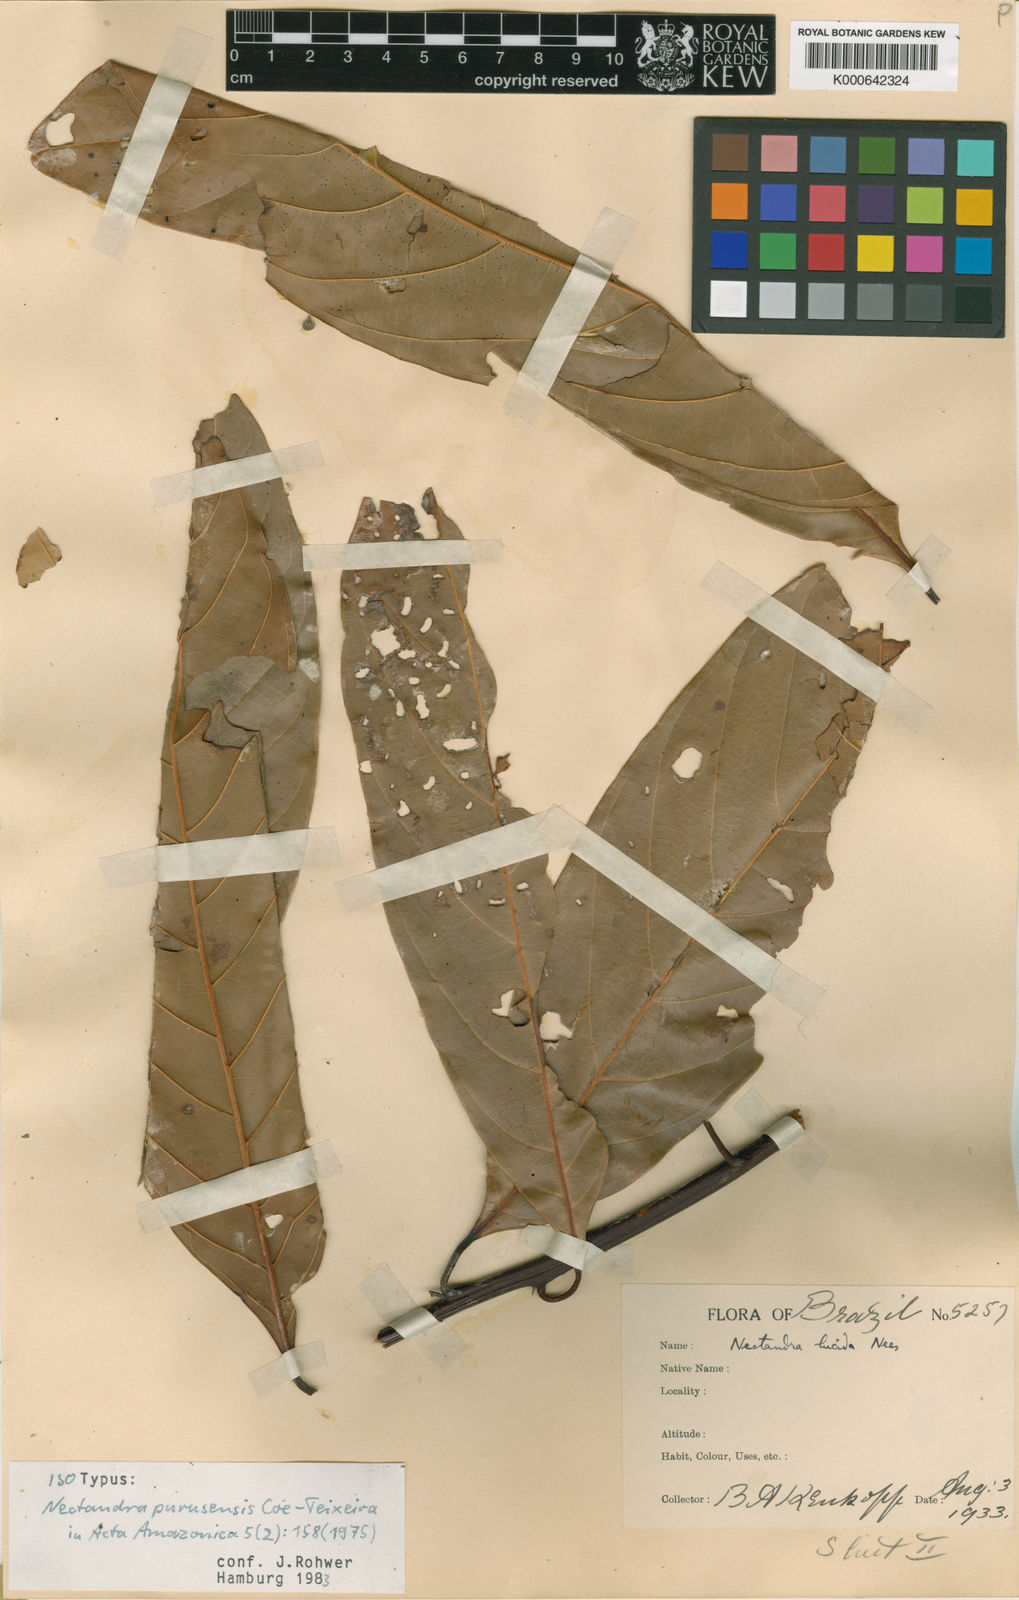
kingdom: Plantae
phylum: Tracheophyta
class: Magnoliopsida
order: Laurales
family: Lauraceae
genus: Nectandra
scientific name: Nectandra pulverulenta
